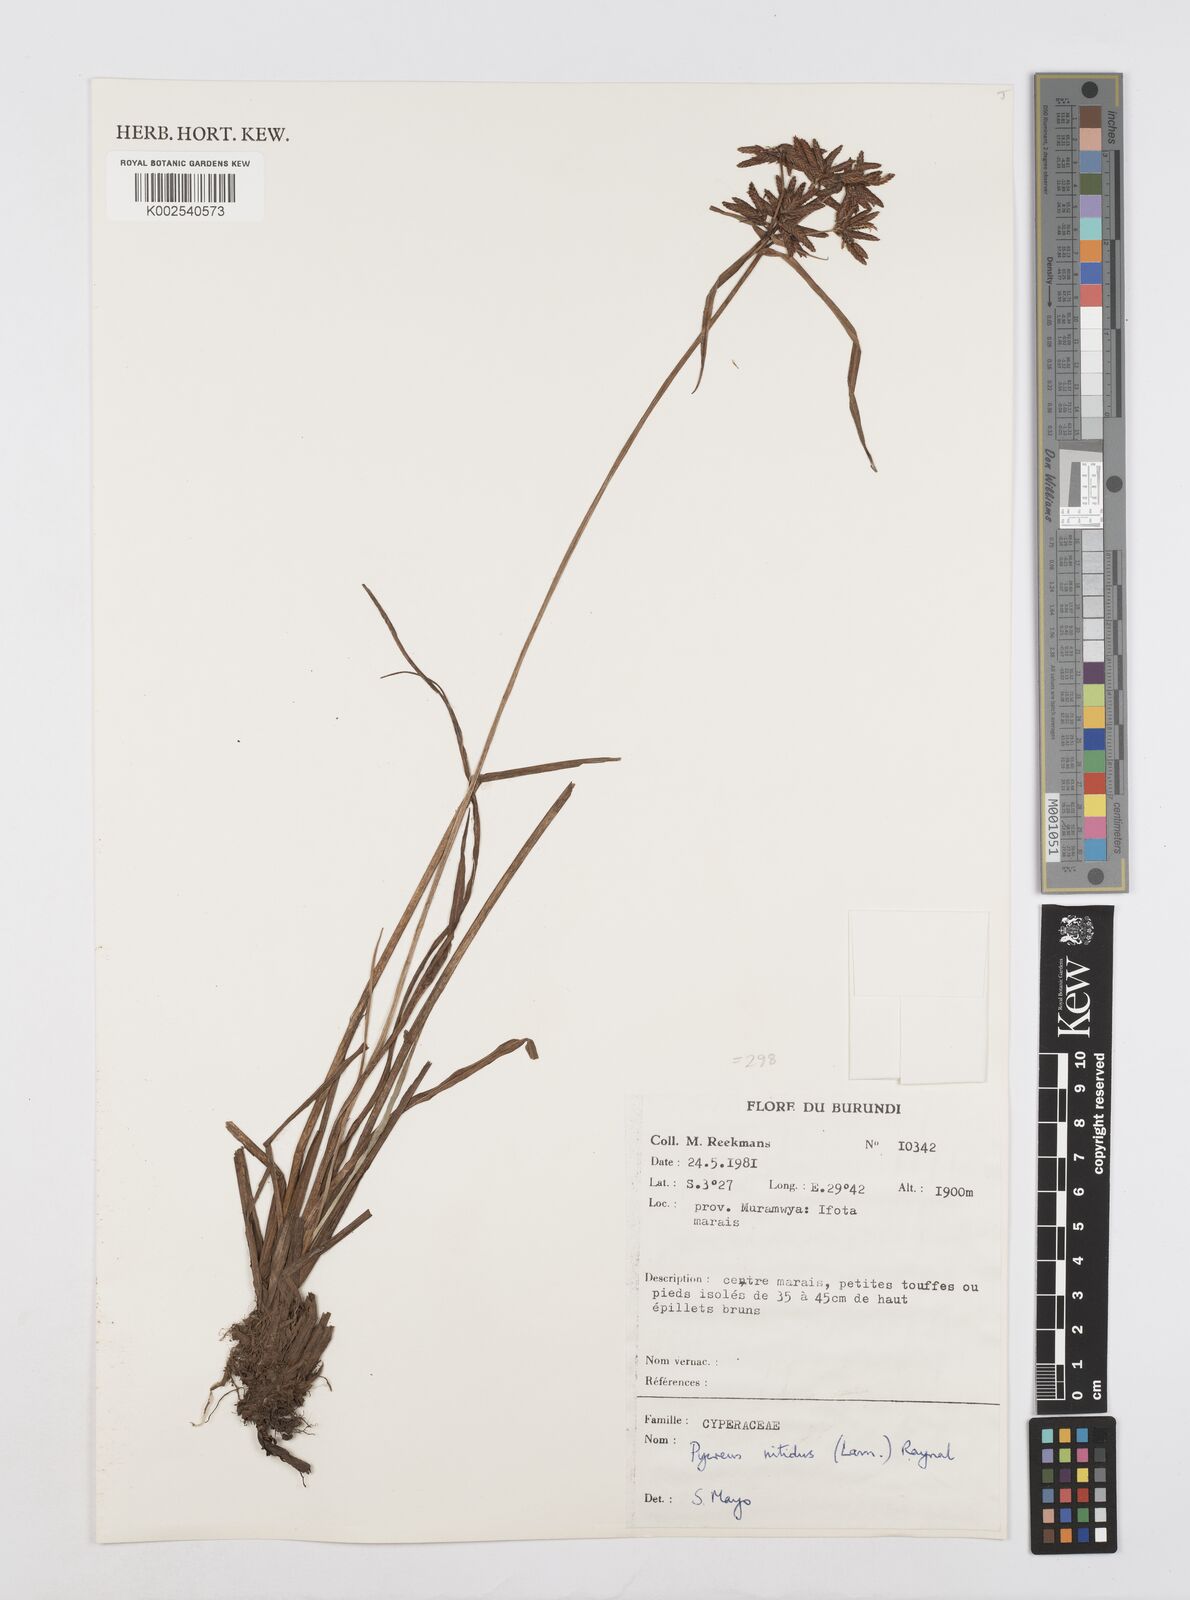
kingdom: Plantae
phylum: Tracheophyta
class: Liliopsida
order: Poales
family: Cyperaceae
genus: Cyperus
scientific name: Cyperus nitidus
